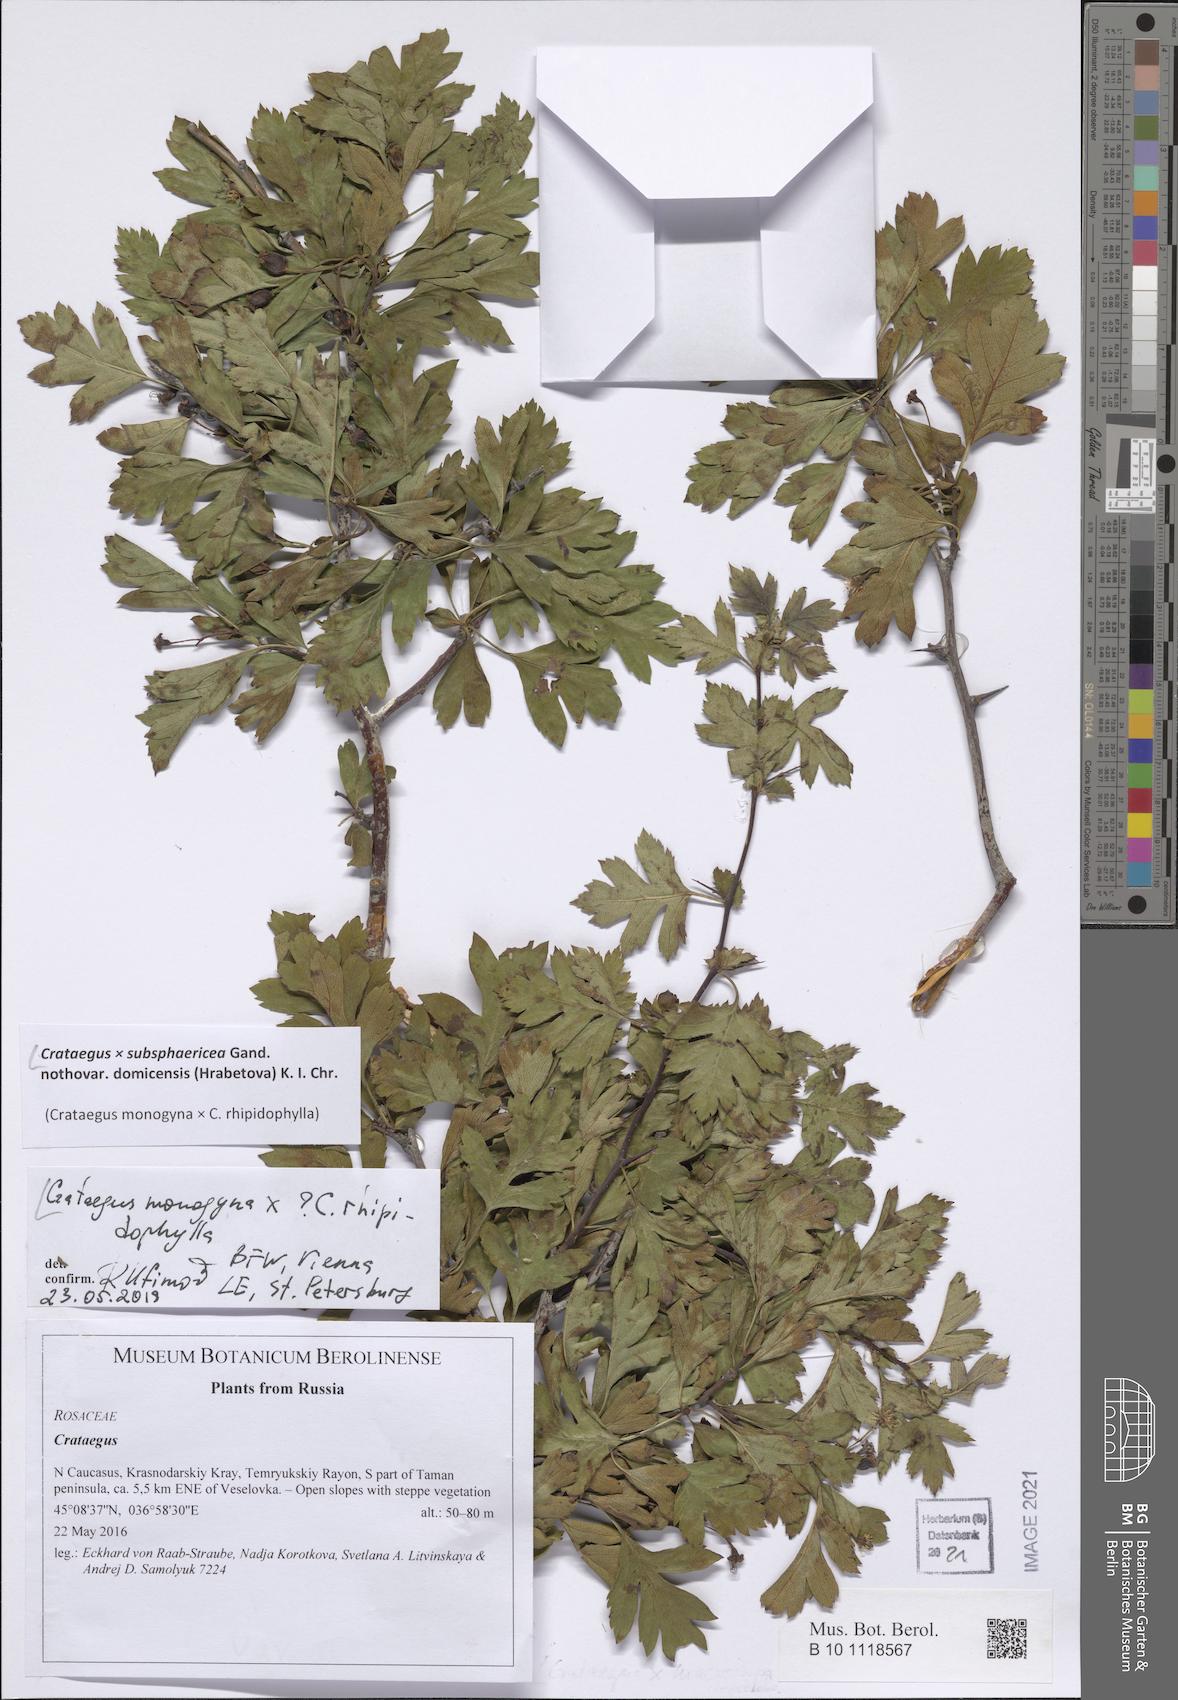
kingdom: Plantae
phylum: Tracheophyta
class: Magnoliopsida
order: Rosales
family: Rosaceae
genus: Crataegus
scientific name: Crataegus domicensis
